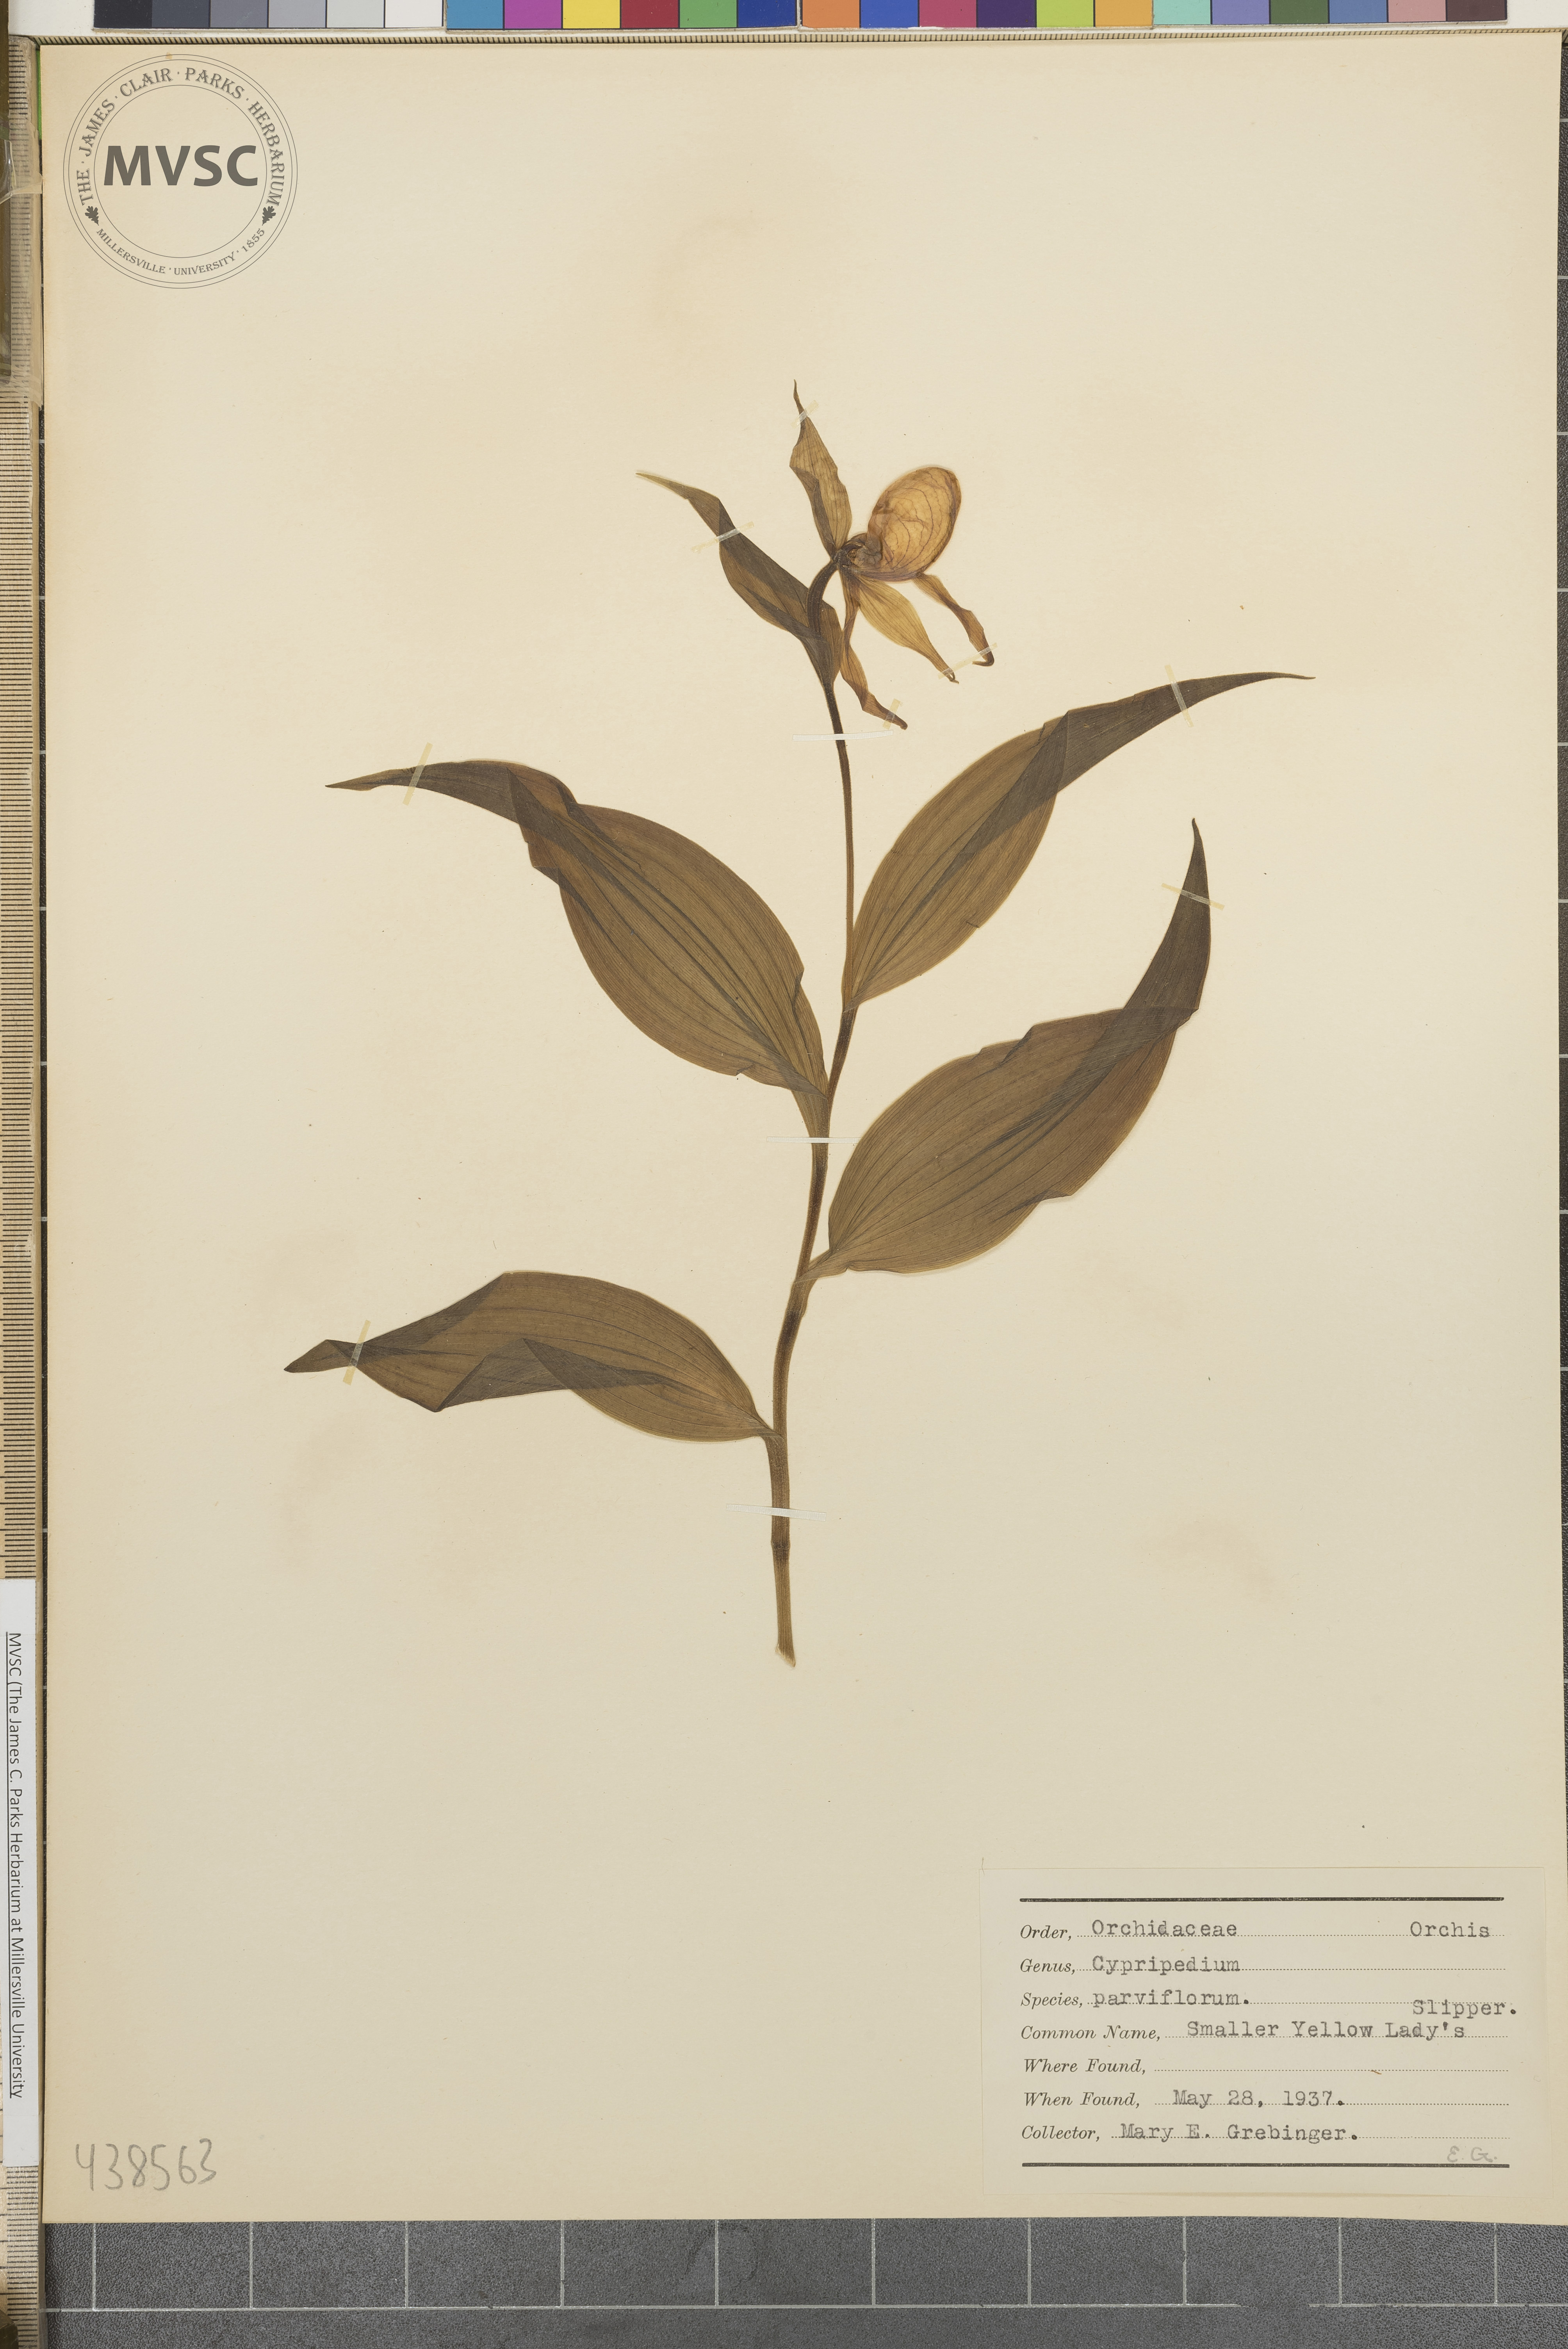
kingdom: Plantae
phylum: Tracheophyta
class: Liliopsida
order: Asparagales
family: Orchidaceae
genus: Cypripedium
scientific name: Cypripedium parviflorum
